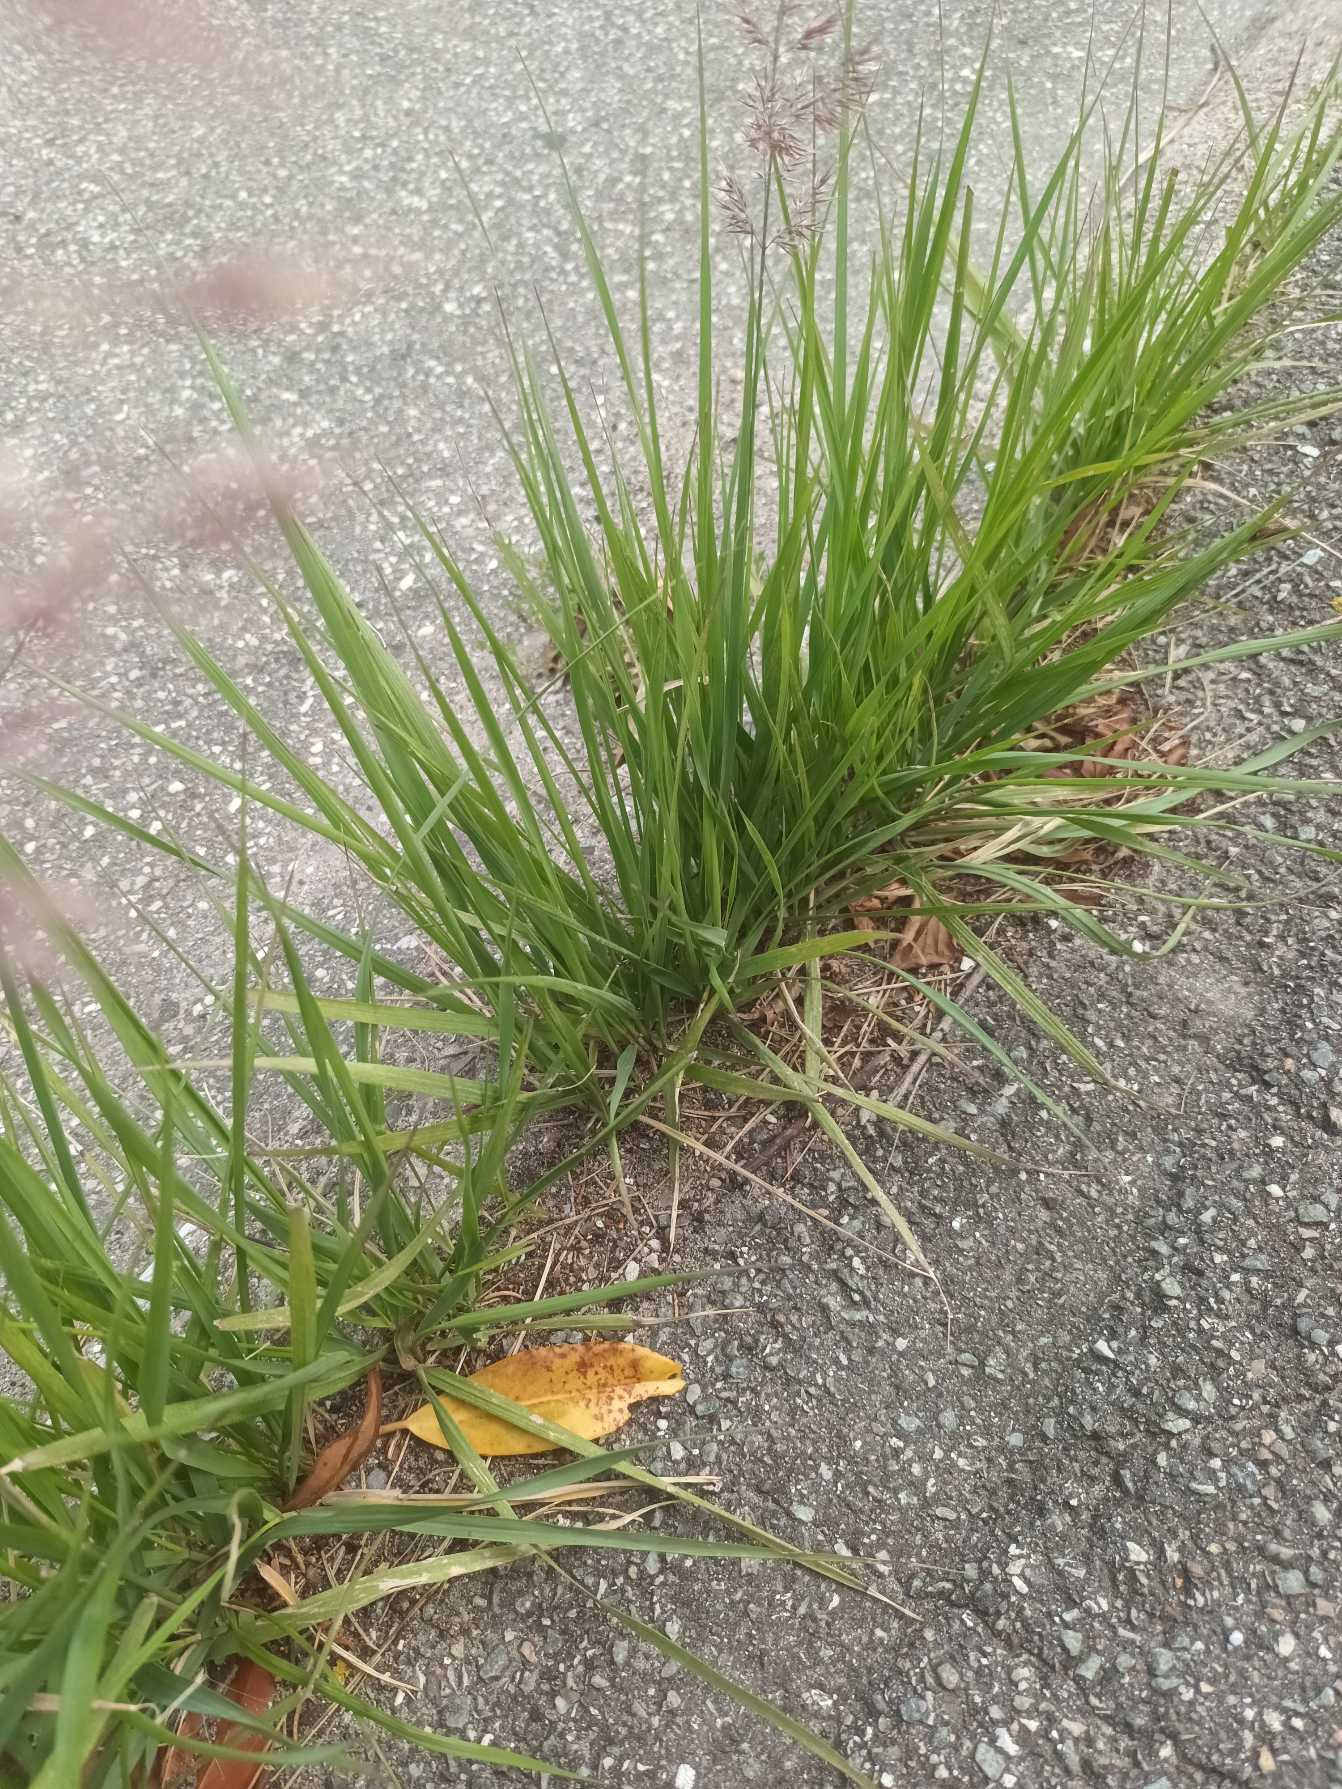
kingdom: Plantae
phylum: Tracheophyta
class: Liliopsida
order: Poales
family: Poaceae
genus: Calamagrostis
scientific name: Calamagrostis epigejos
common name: Bjerg-rørhvene
